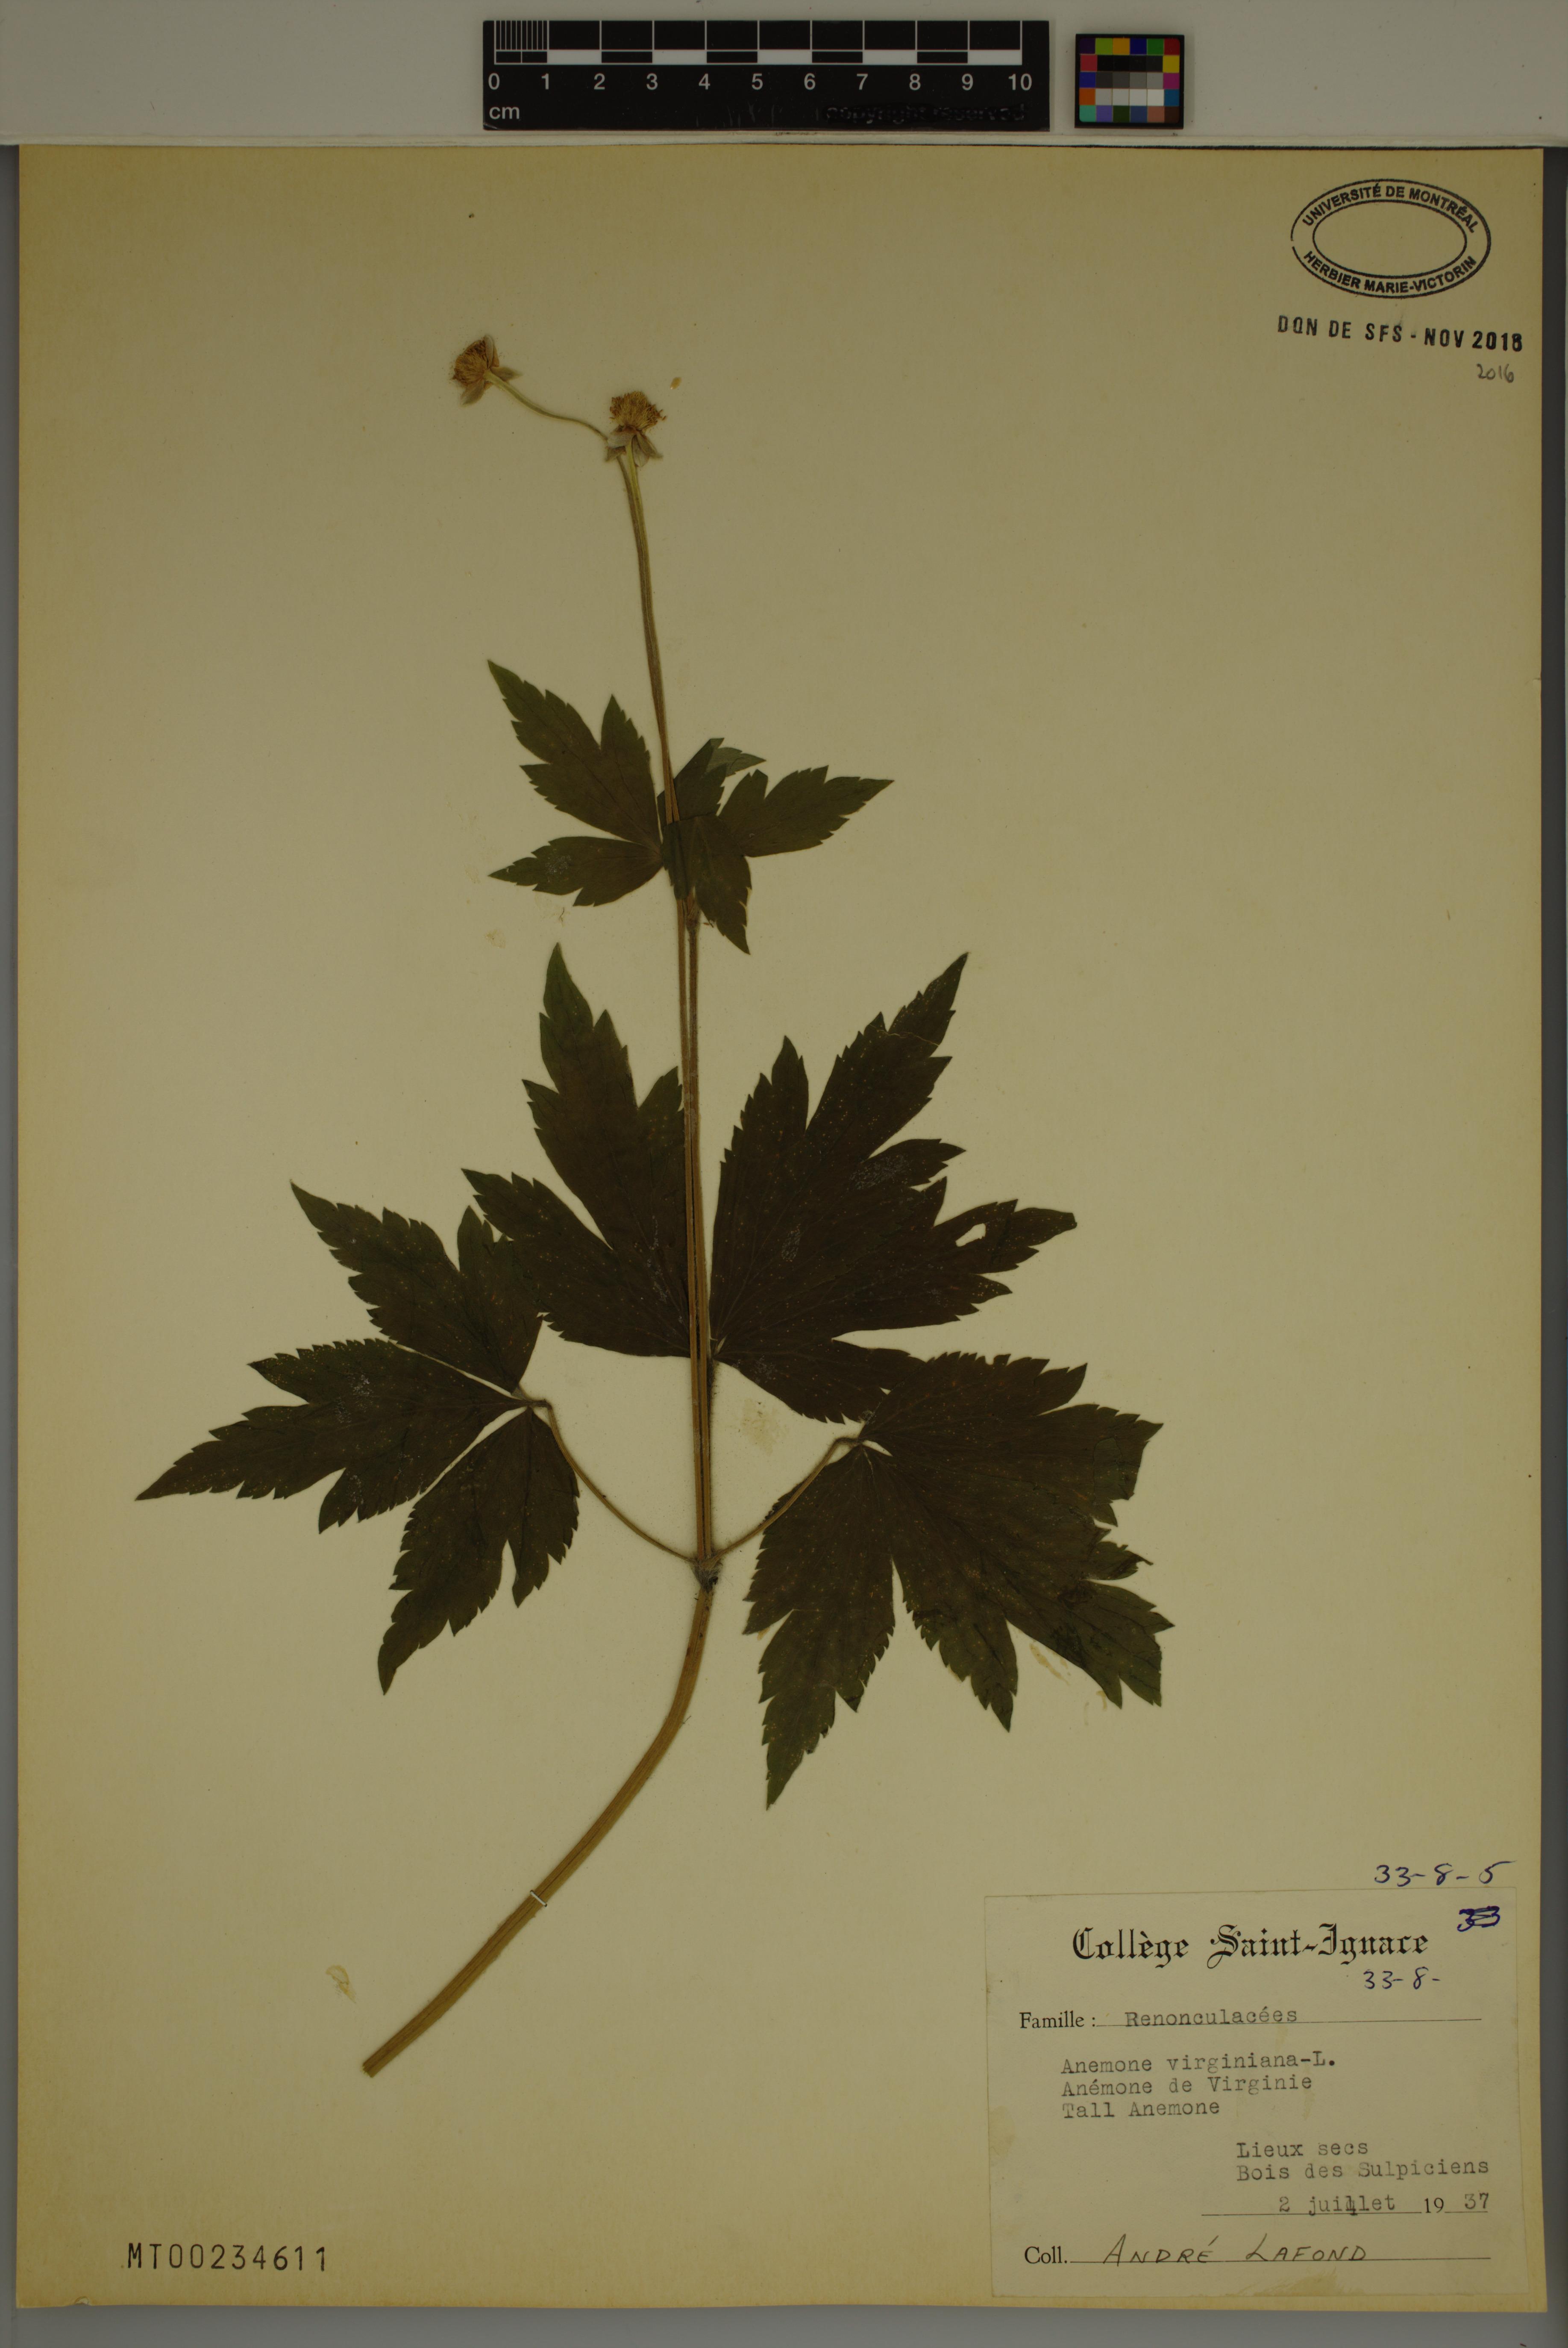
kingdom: Plantae
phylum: Tracheophyta
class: Magnoliopsida
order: Ranunculales
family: Ranunculaceae
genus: Anemone
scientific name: Anemone virginiana
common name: Tall anemone
